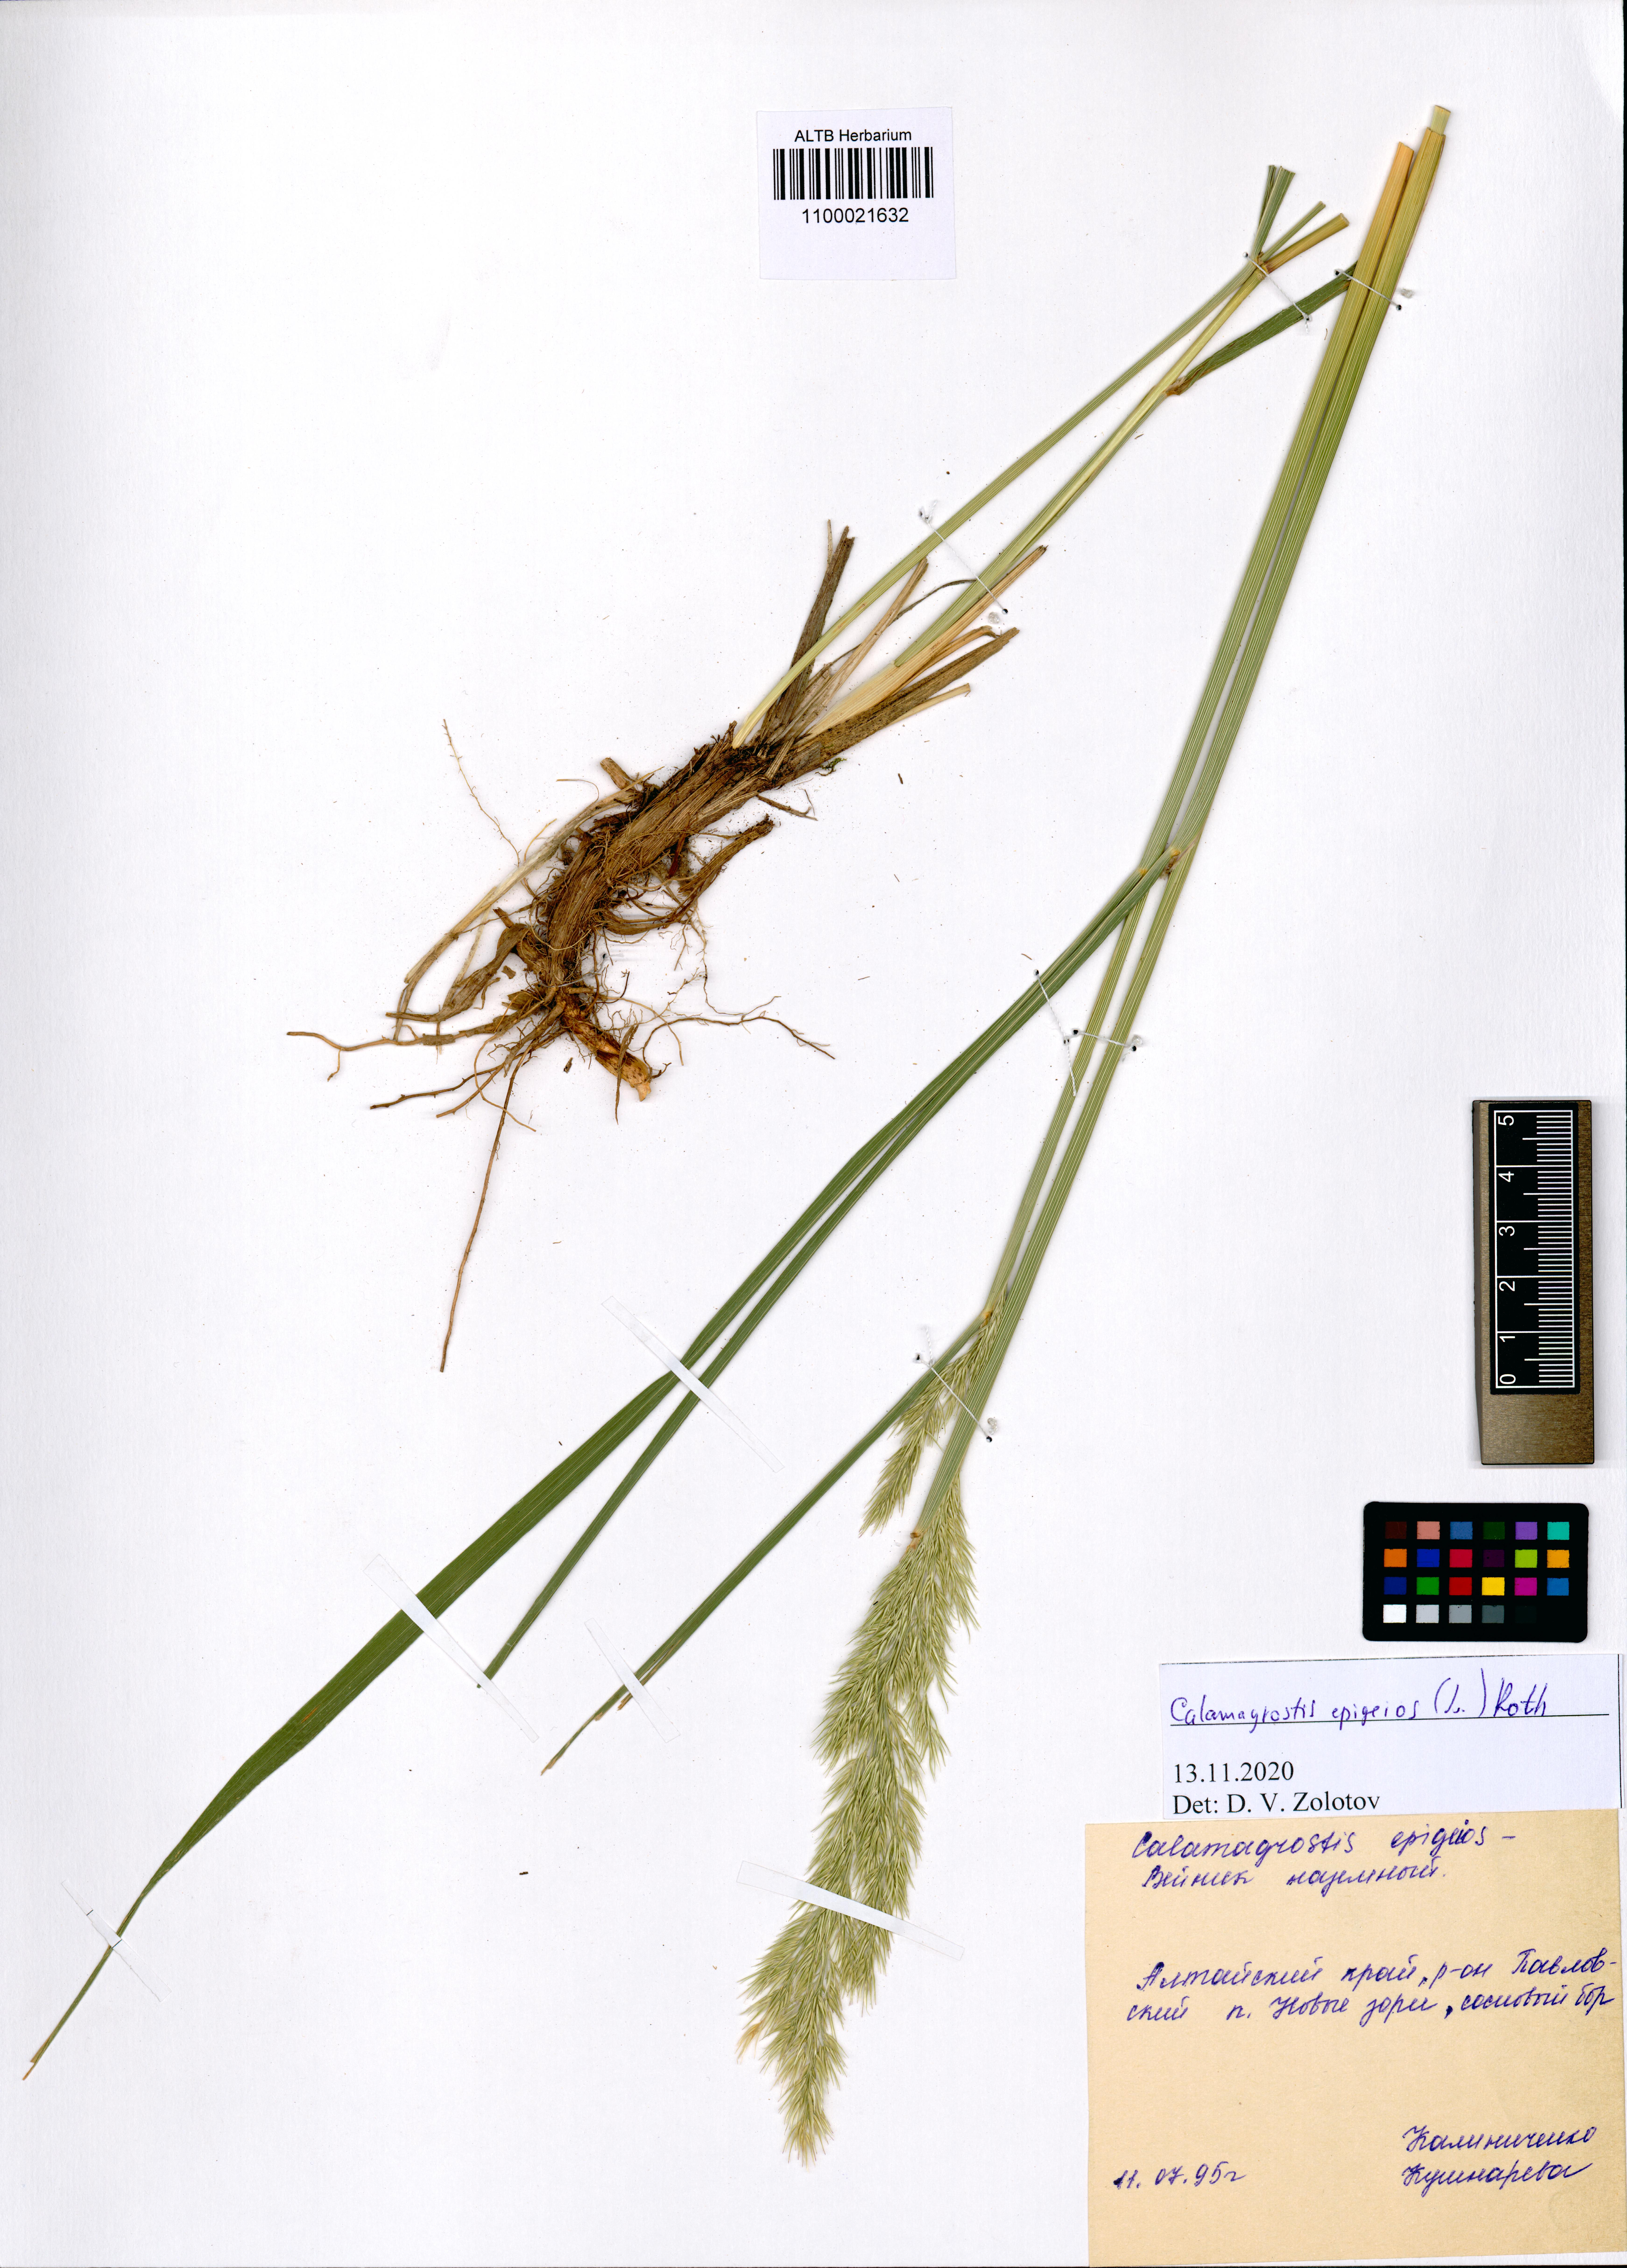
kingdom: Plantae
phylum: Tracheophyta
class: Liliopsida
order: Poales
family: Poaceae
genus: Calamagrostis
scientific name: Calamagrostis epigejos
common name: Wood small-reed
